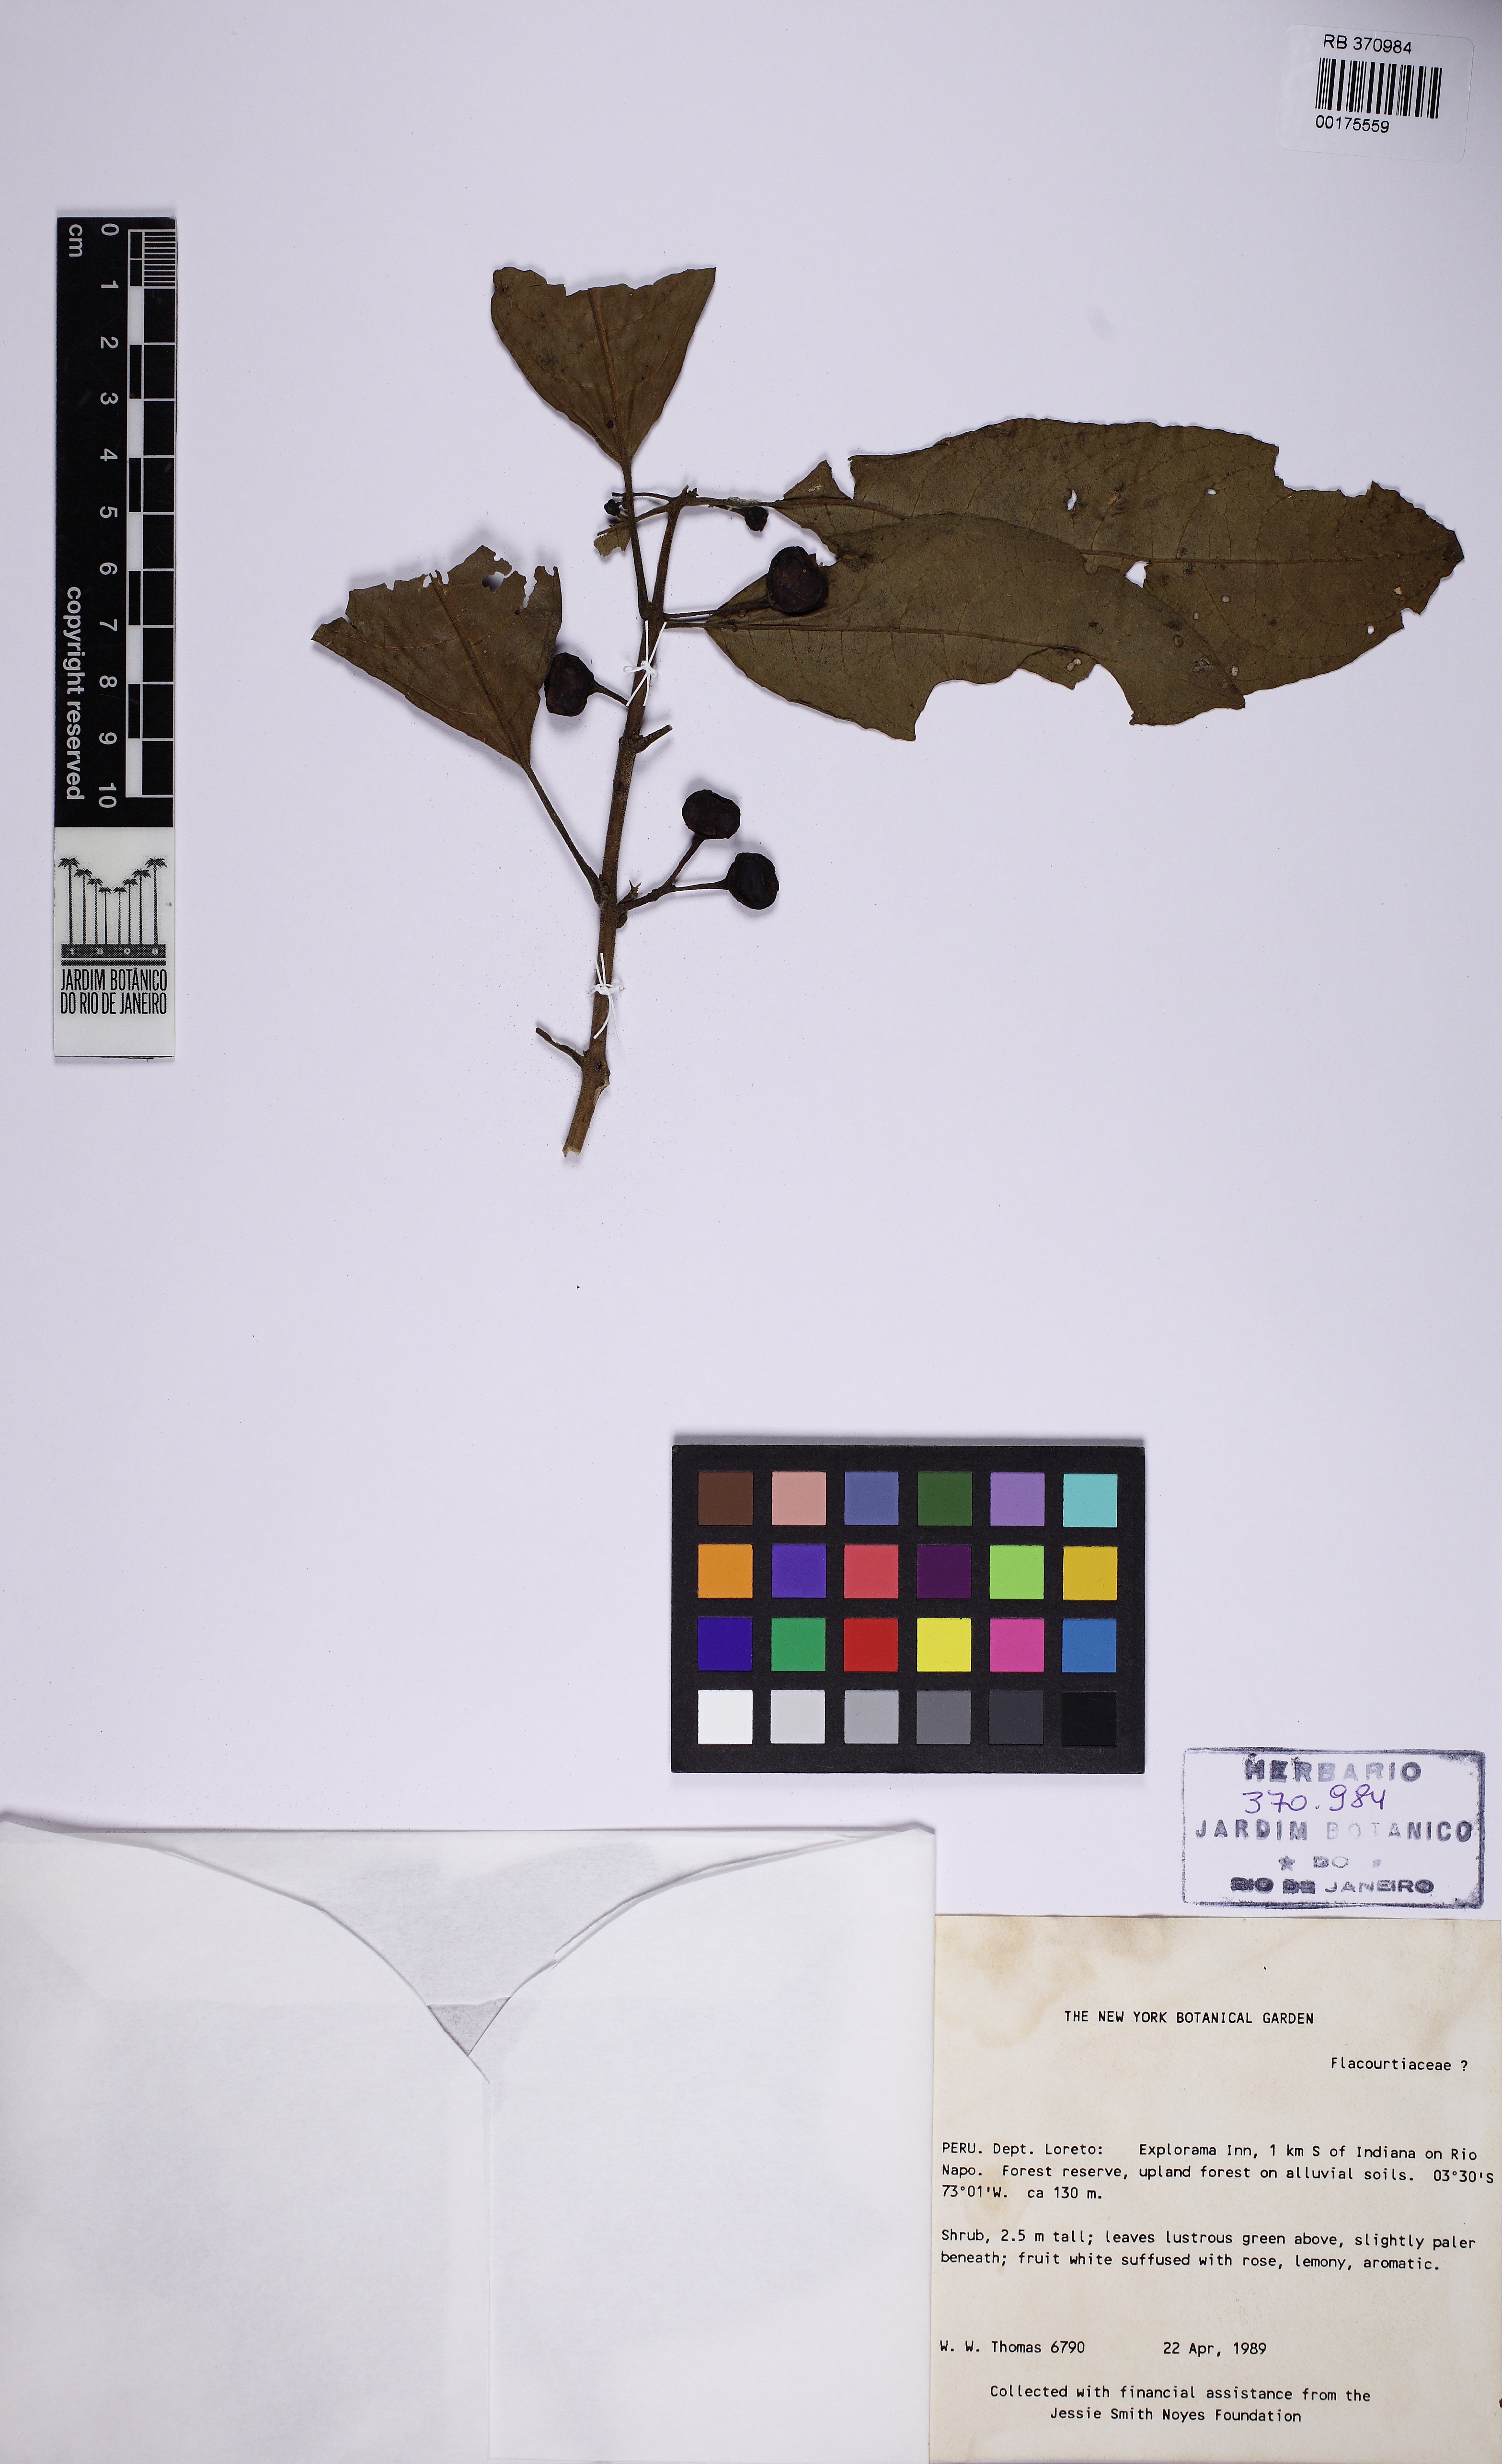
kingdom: Plantae
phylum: Tracheophyta
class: Magnoliopsida
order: Malpighiales
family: Flacourtiaceae
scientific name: Flacourtiaceae
